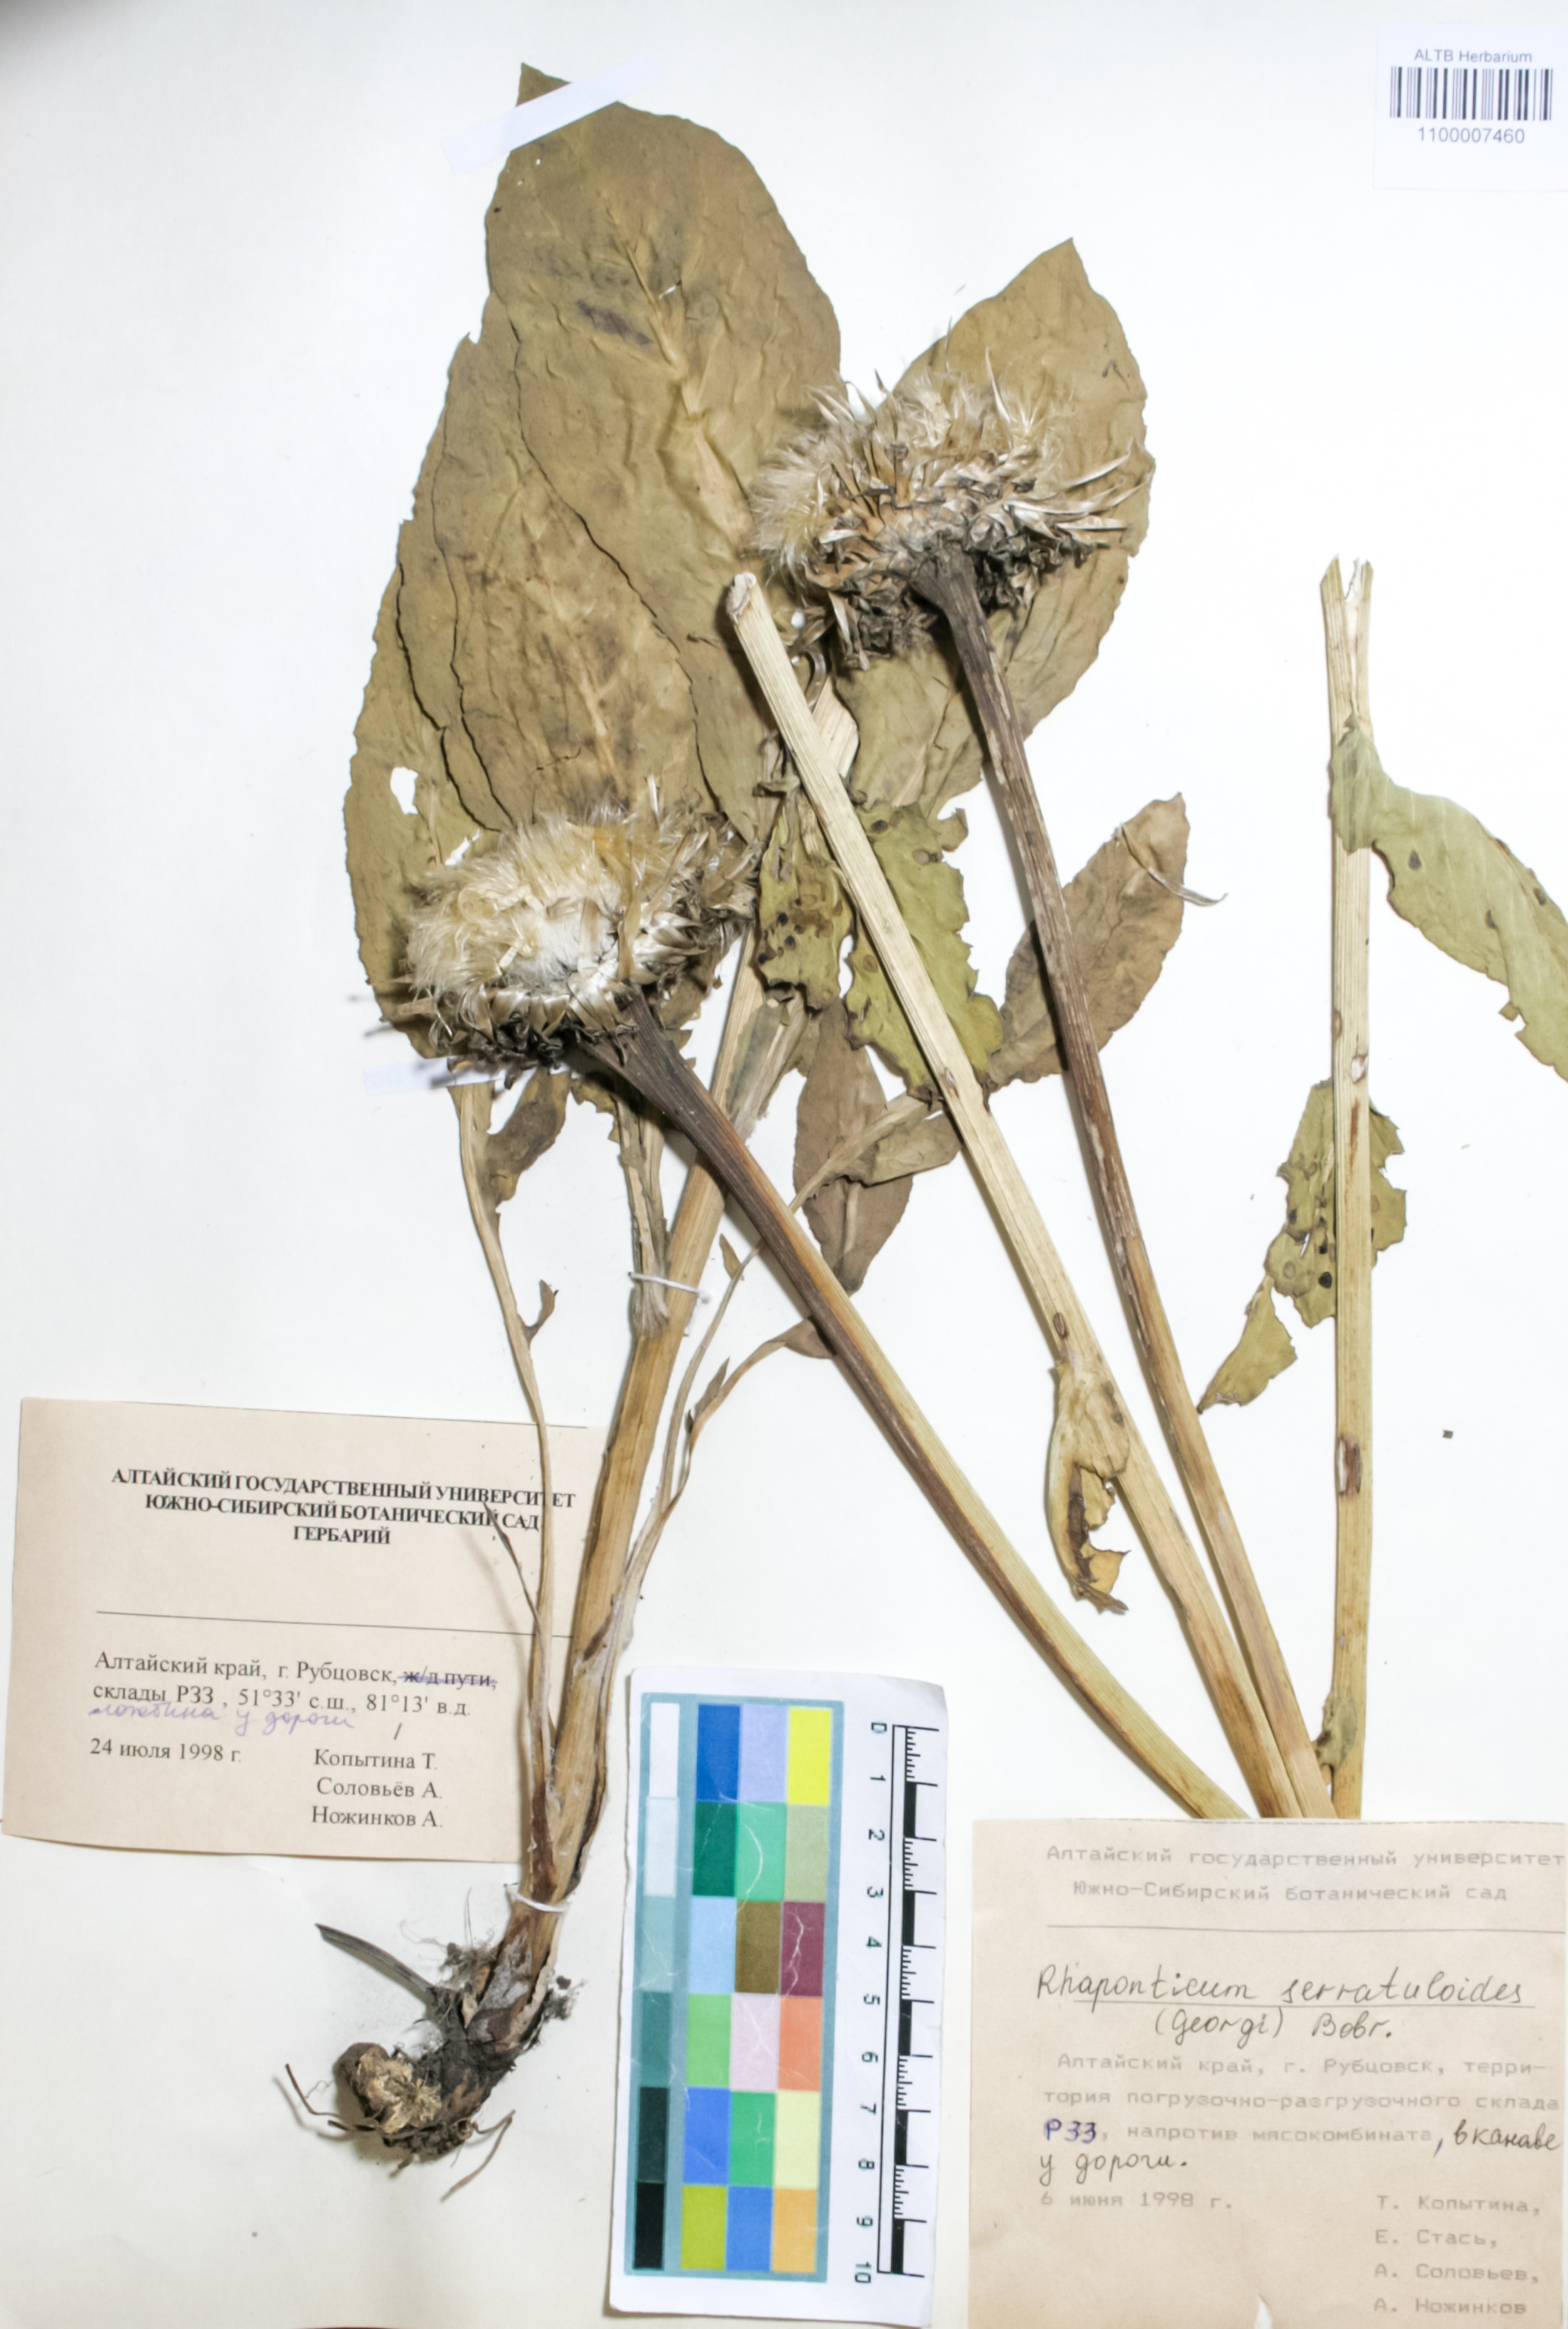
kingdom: Plantae
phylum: Tracheophyta
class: Magnoliopsida
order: Asterales
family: Asteraceae
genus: Leuzea
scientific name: Leuzea altaica
